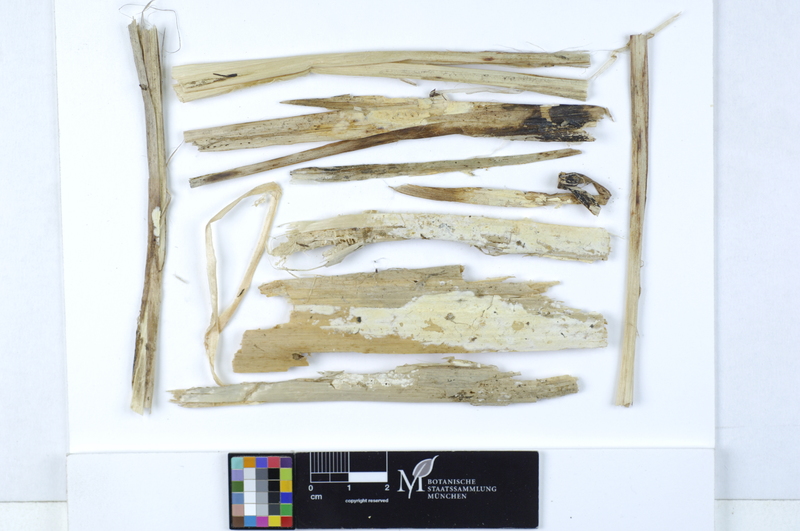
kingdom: Plantae
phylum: Tracheophyta
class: Liliopsida
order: Poales
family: Typhaceae
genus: Typha
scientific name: Typha angustifolia
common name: Lesser bulrush
